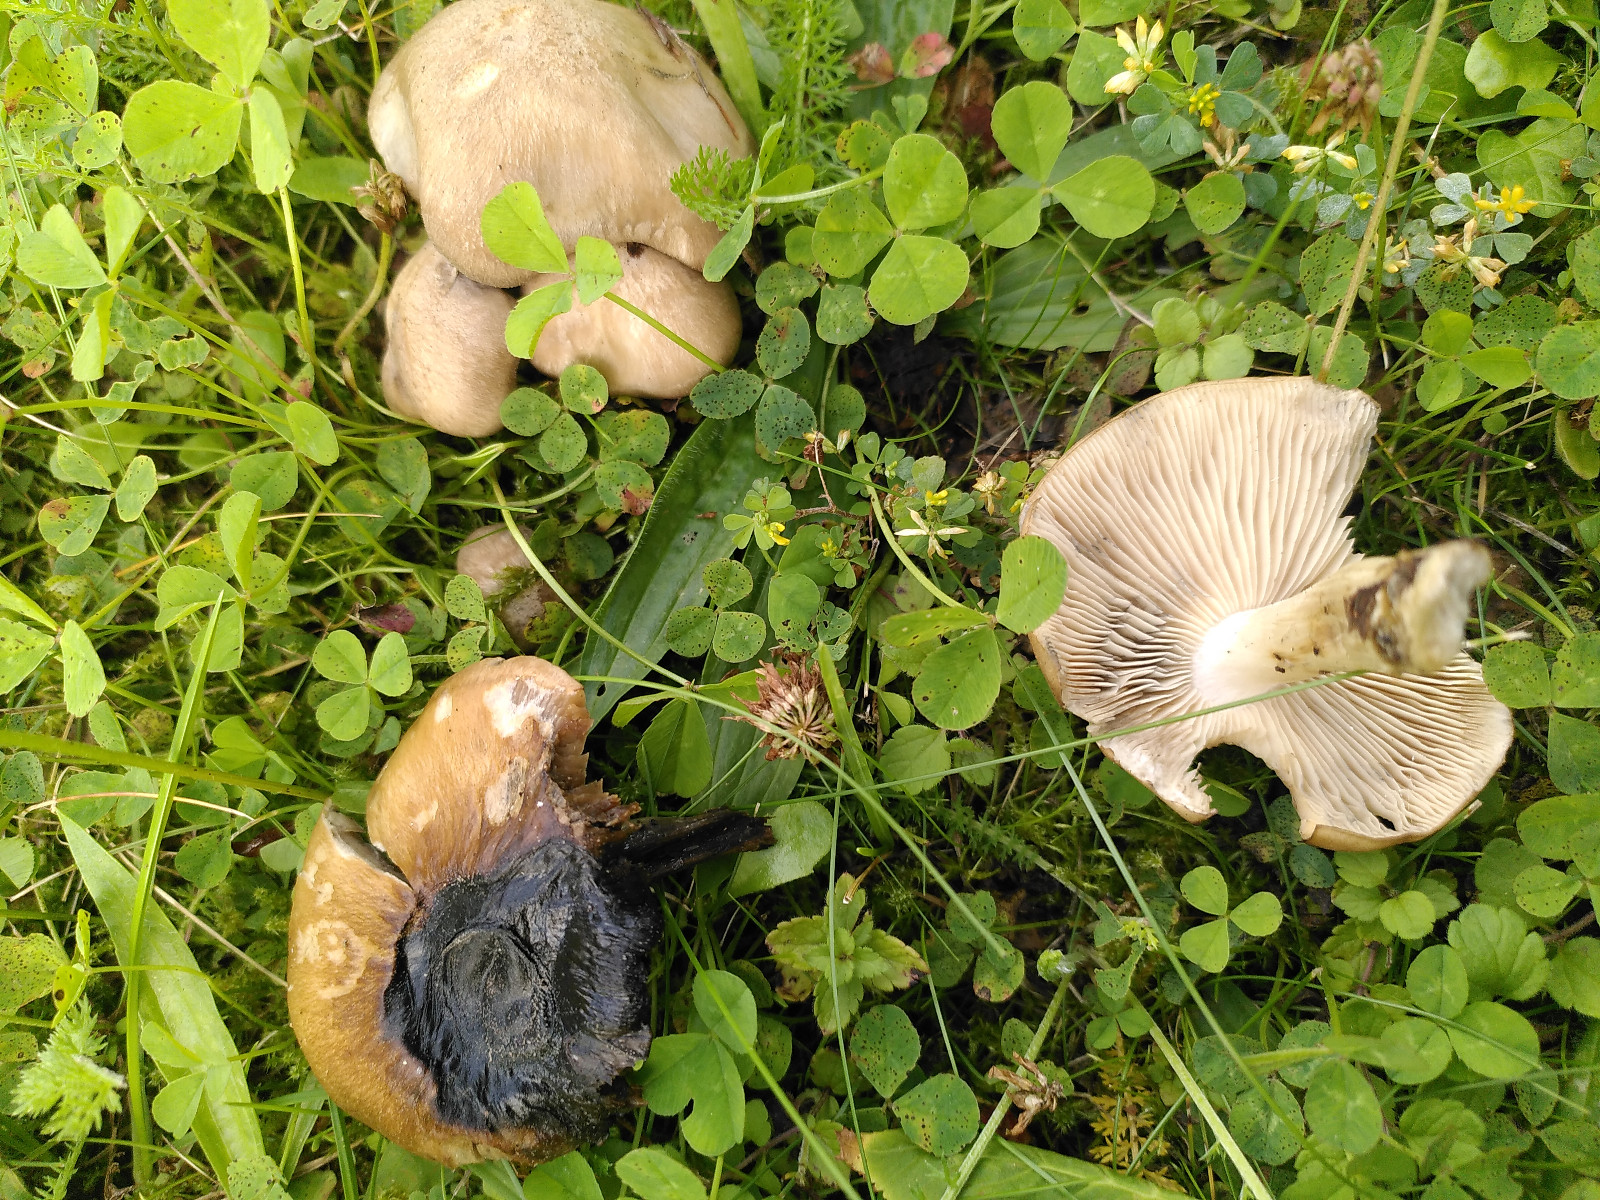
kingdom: Fungi
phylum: Basidiomycota
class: Agaricomycetes
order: Agaricales
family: Lyophyllaceae
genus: Lyophyllum
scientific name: Lyophyllum paelochroum
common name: blånende gråblad
